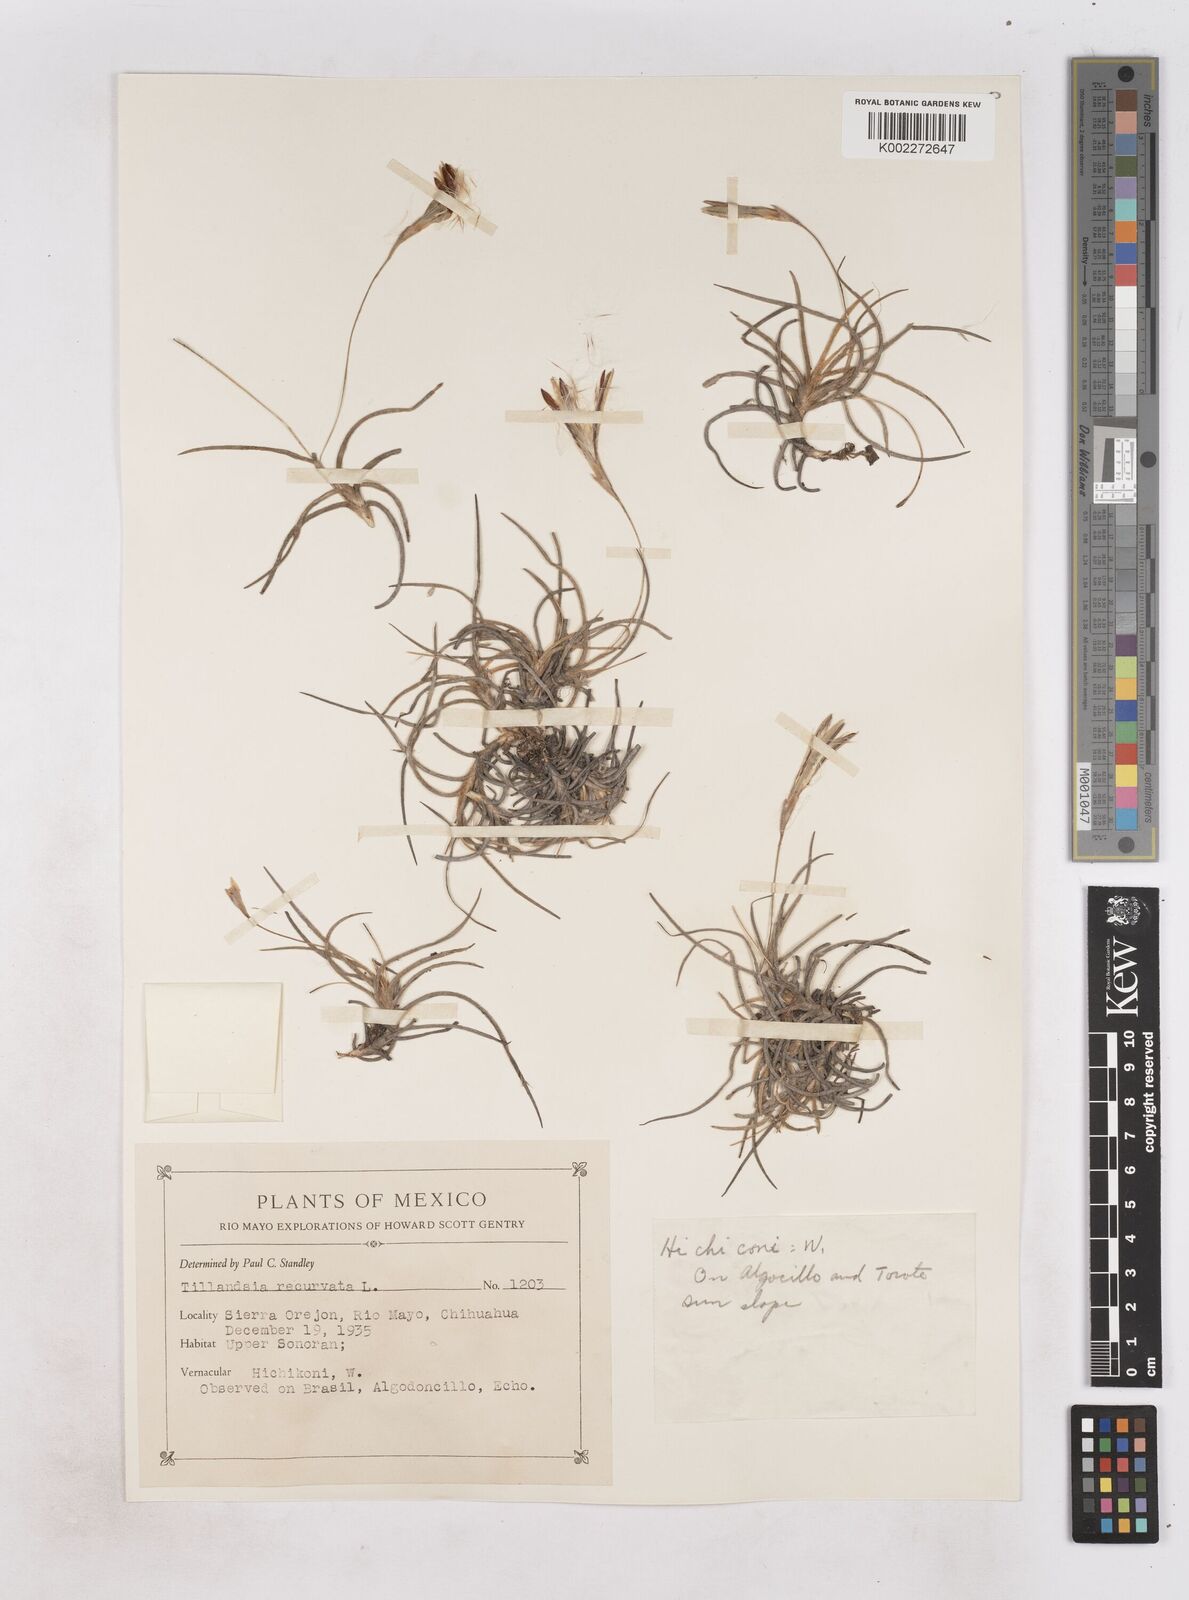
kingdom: Plantae
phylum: Tracheophyta
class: Liliopsida
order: Poales
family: Bromeliaceae
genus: Tillandsia
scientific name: Tillandsia recurvata
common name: Small ballmoss
